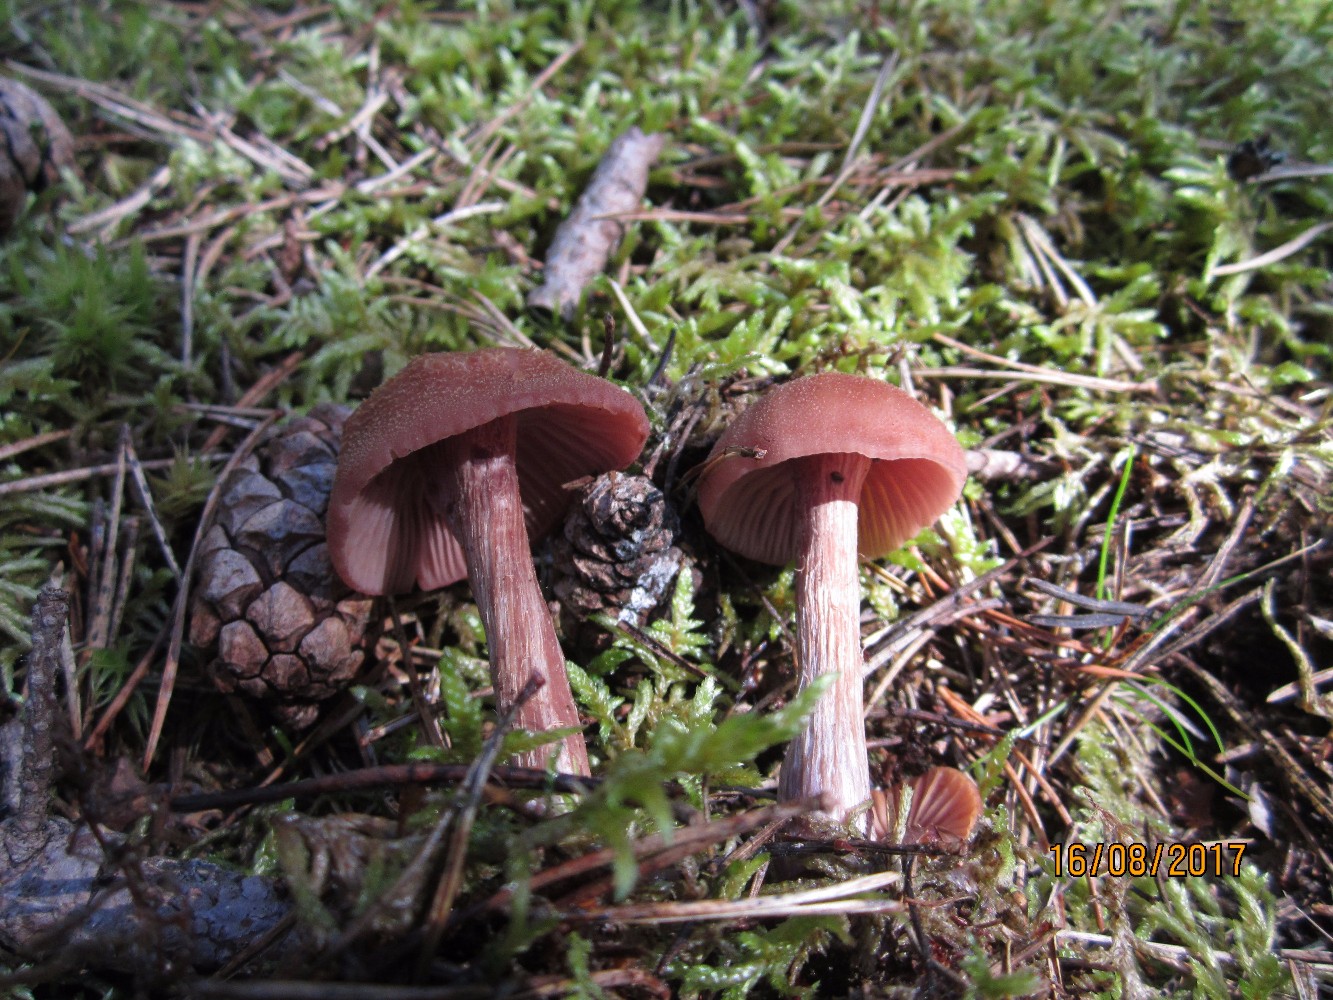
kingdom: Fungi
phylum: Basidiomycota
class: Agaricomycetes
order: Agaricales
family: Hydnangiaceae
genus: Laccaria
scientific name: Laccaria bicolor
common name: tvefarvet ametysthat
